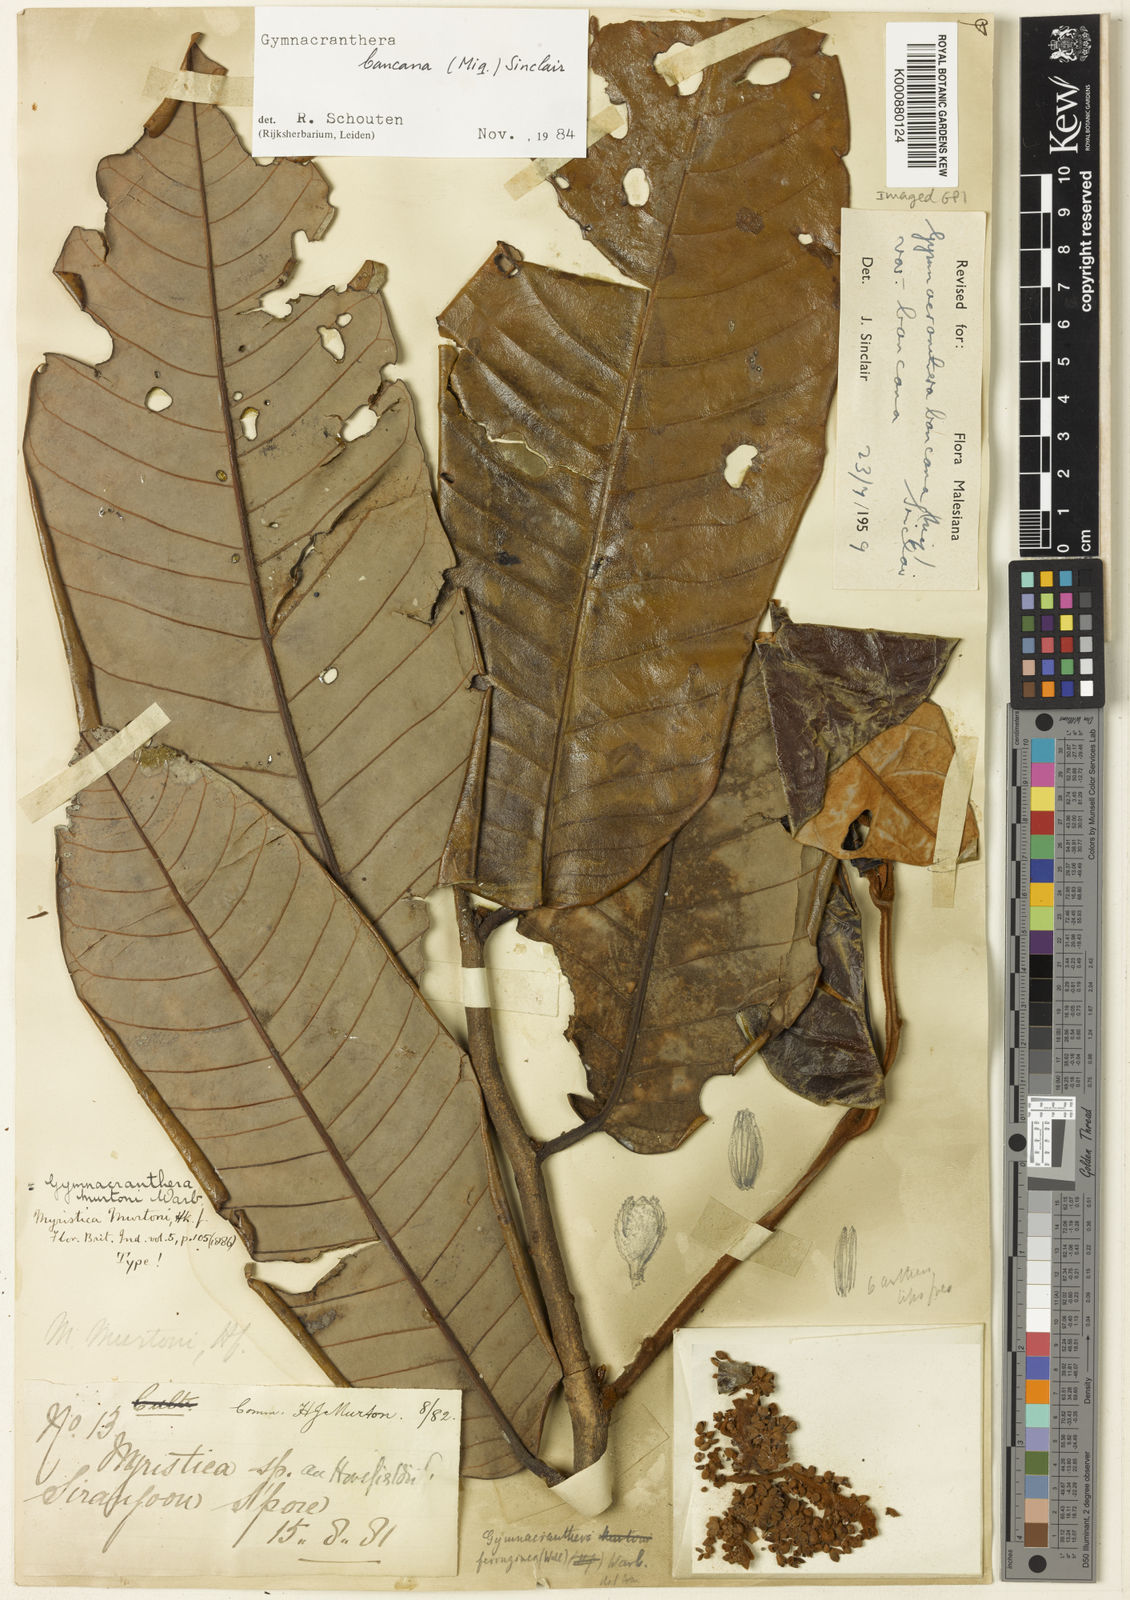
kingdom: Plantae
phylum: Tracheophyta
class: Magnoliopsida
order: Magnoliales
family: Myristicaceae
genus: Gymnacranthera
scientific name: Gymnacranthera bancana
